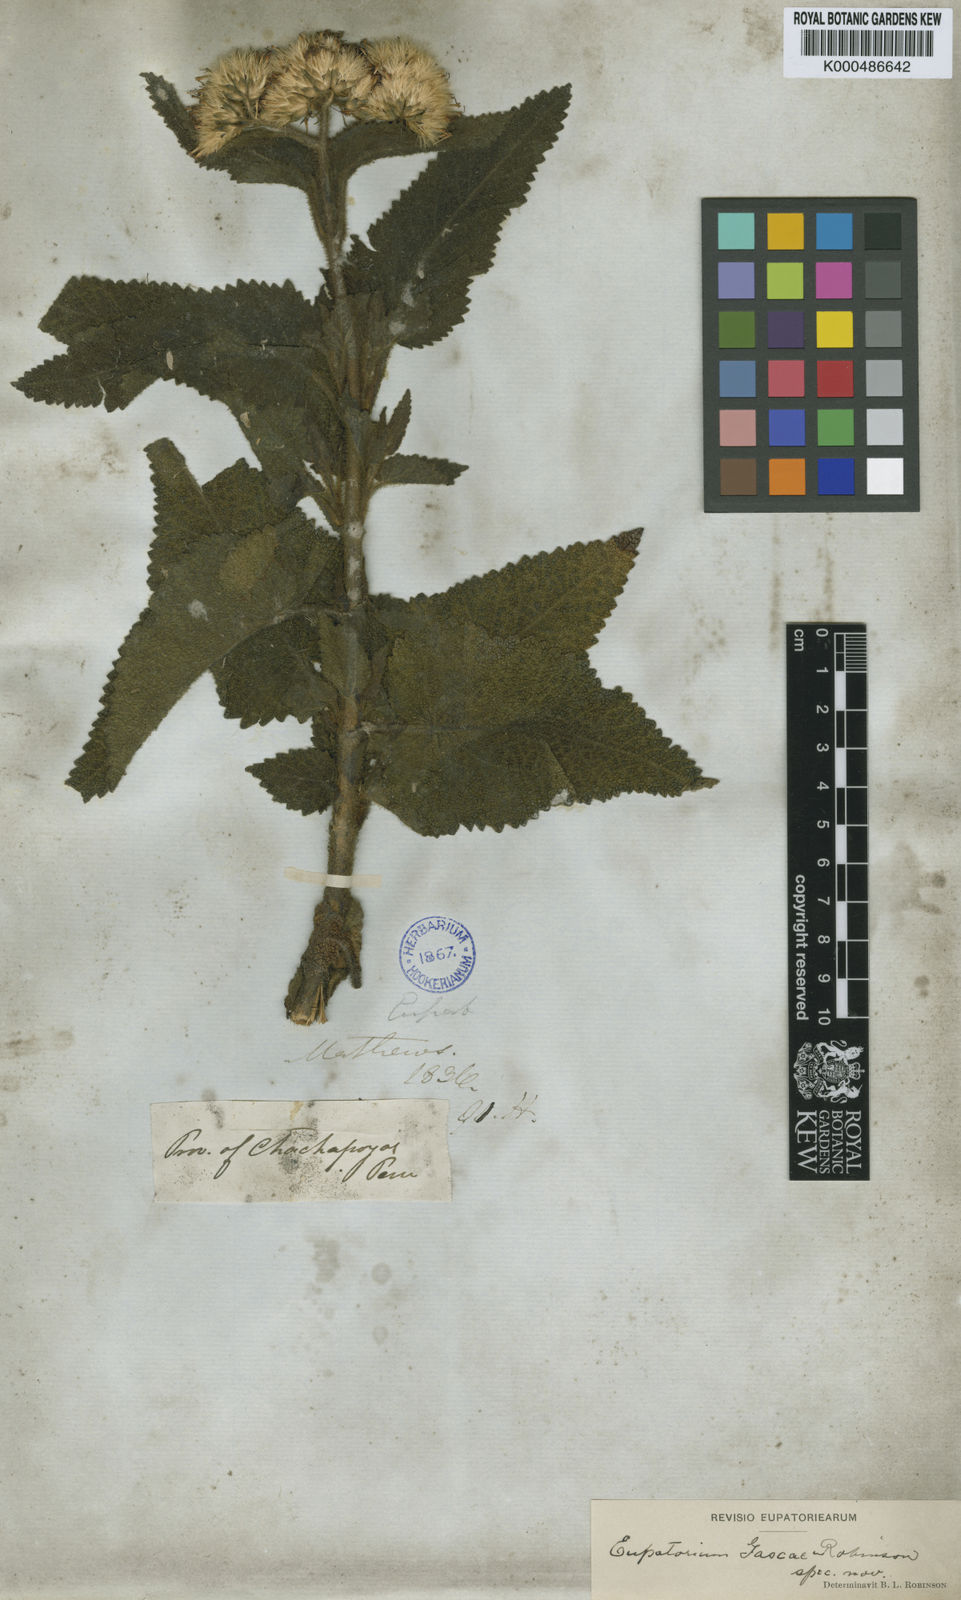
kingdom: Plantae
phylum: Tracheophyta
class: Magnoliopsida
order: Asterales
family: Asteraceae
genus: Aristeguietia
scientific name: Aristeguietia gascae
